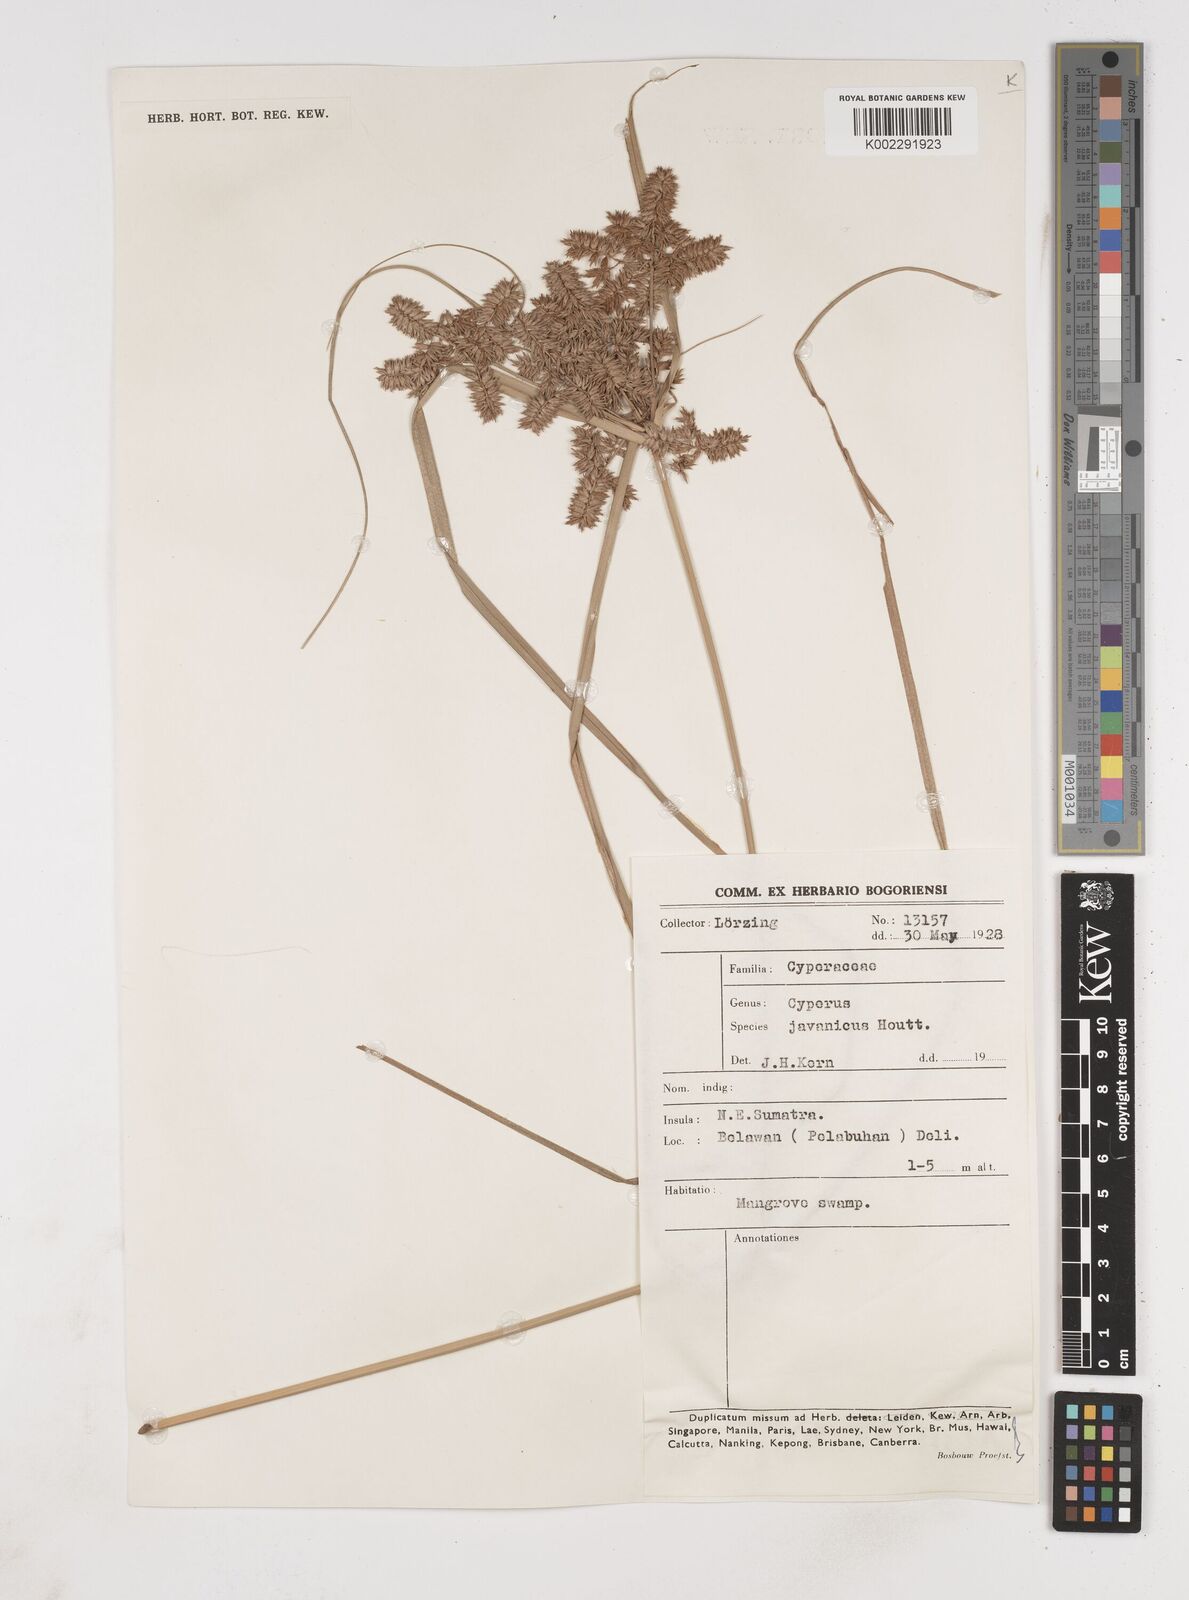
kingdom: Plantae
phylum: Tracheophyta
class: Liliopsida
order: Poales
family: Cyperaceae
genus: Cyperus
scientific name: Cyperus javanicus
